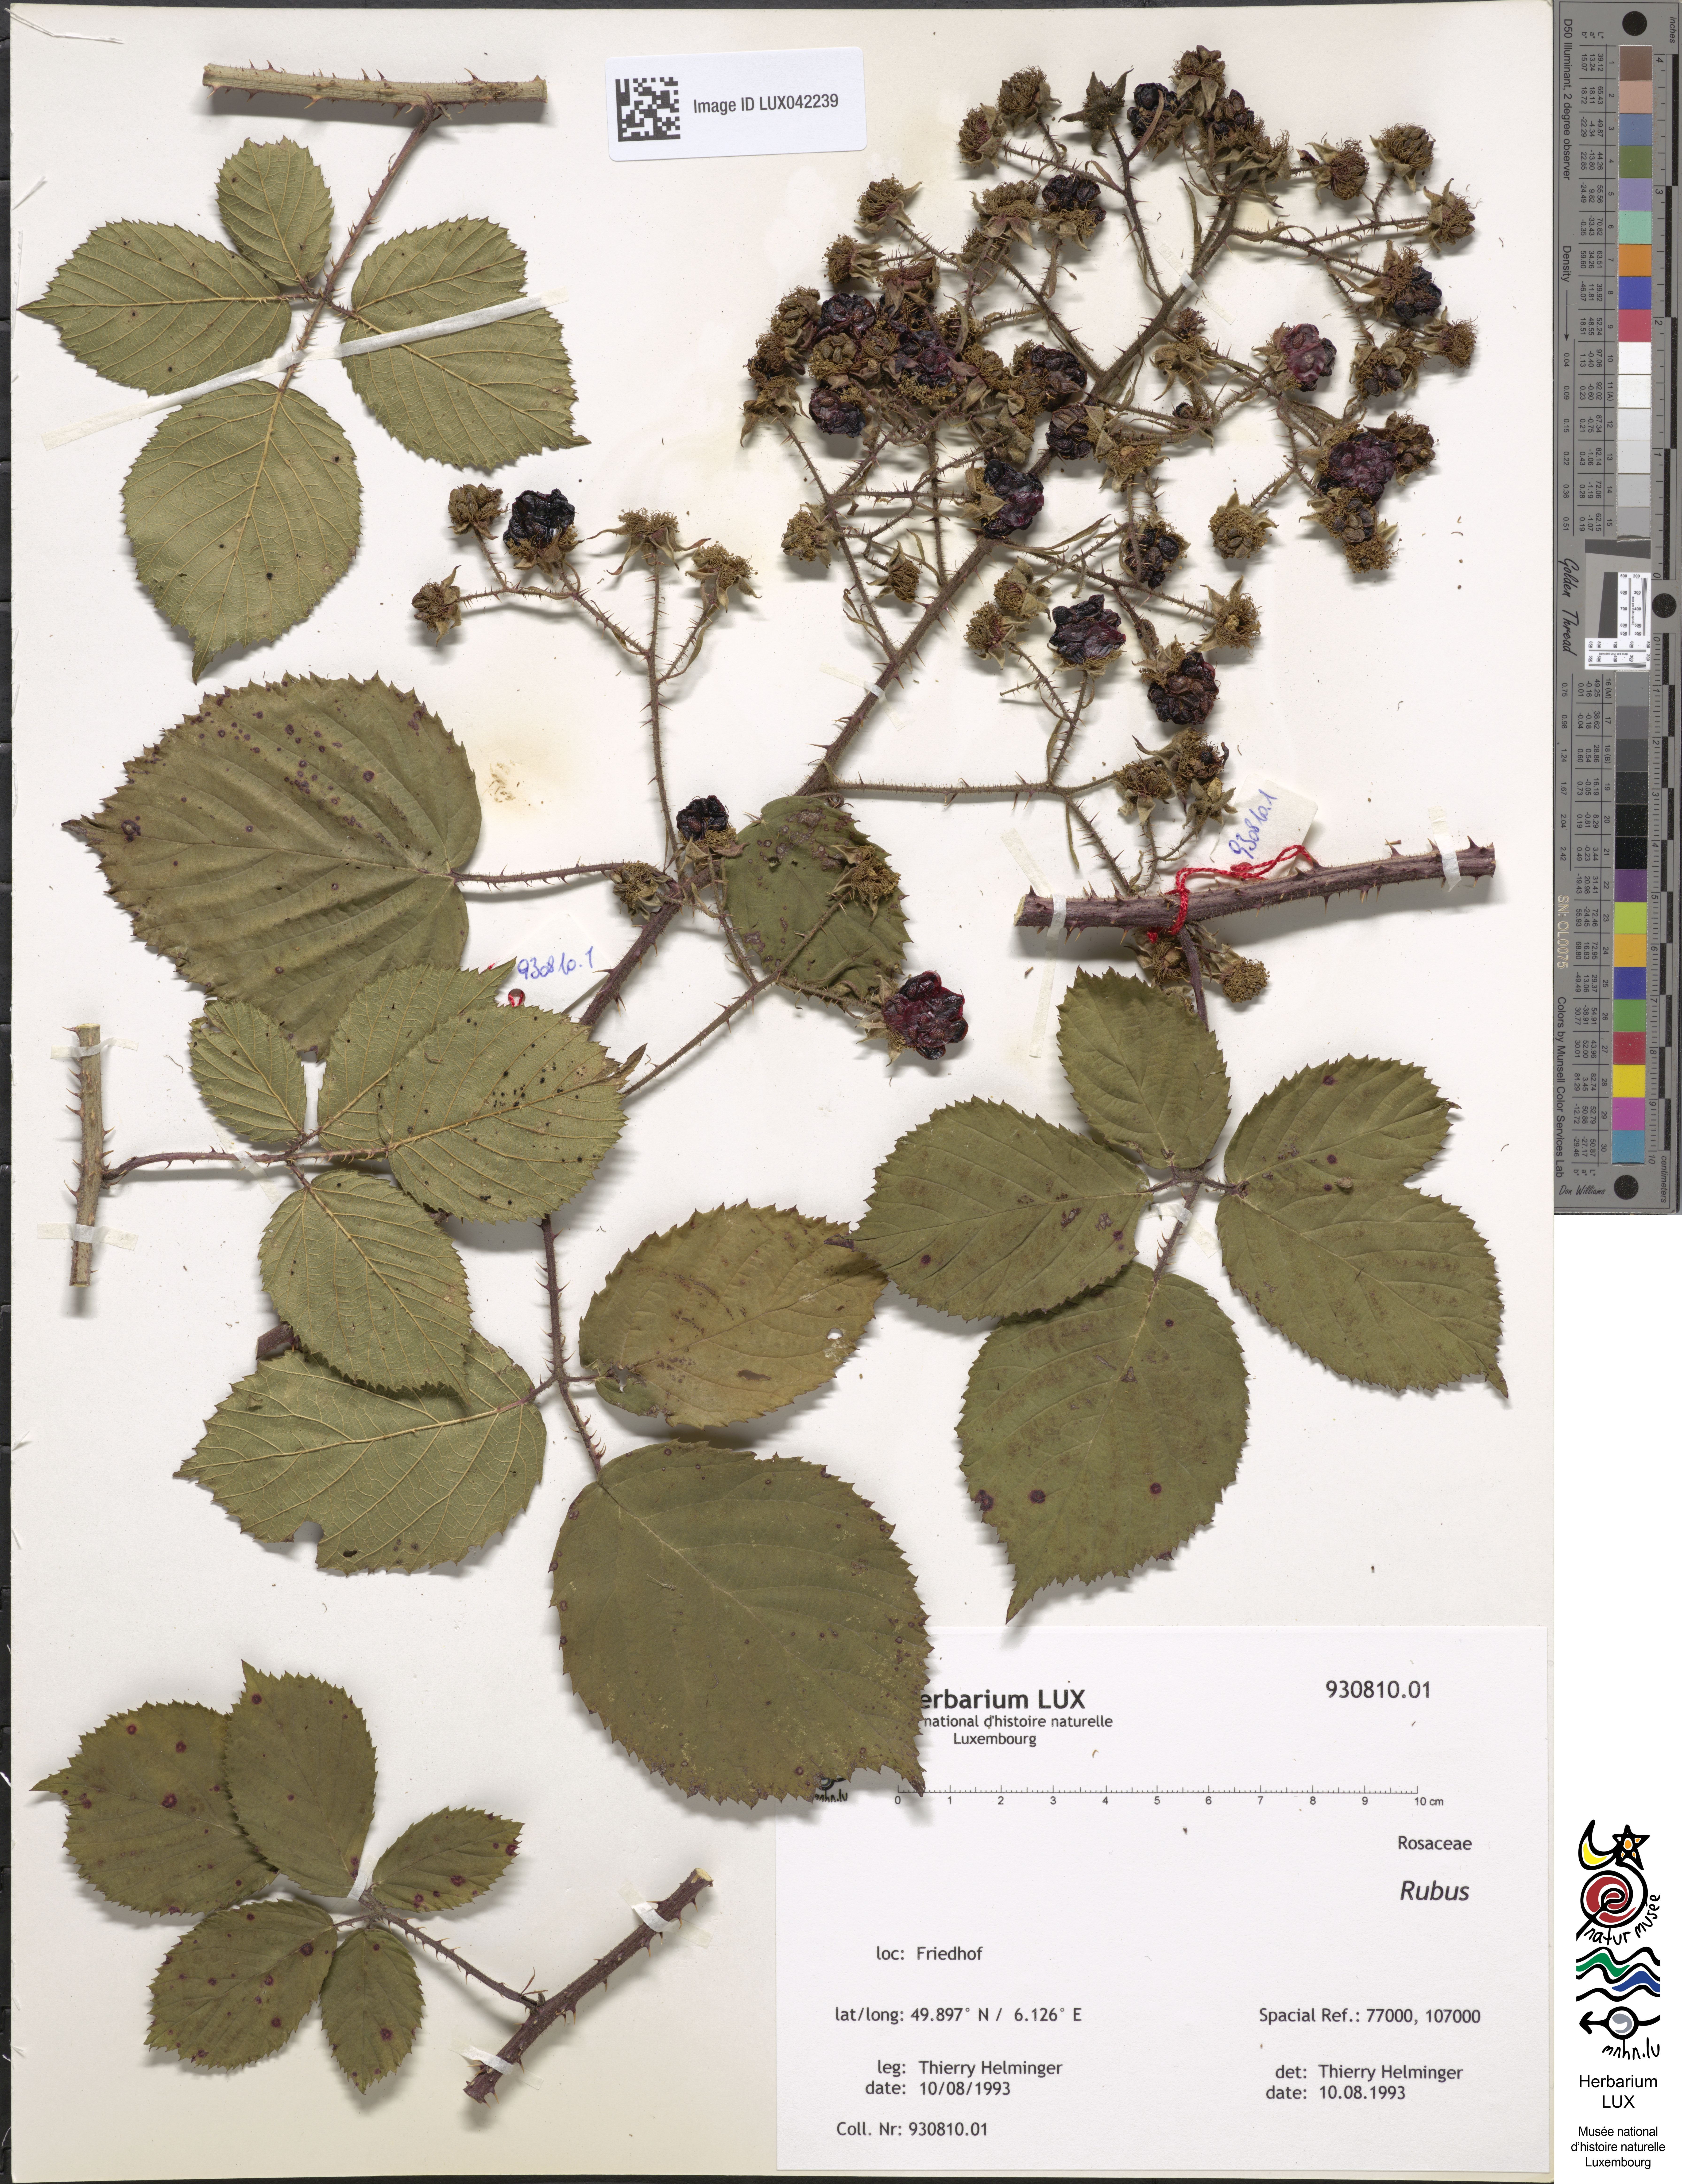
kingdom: Plantae
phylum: Tracheophyta
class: Magnoliopsida
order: Rosales
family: Rosaceae
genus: Rubus
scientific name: Rubus
